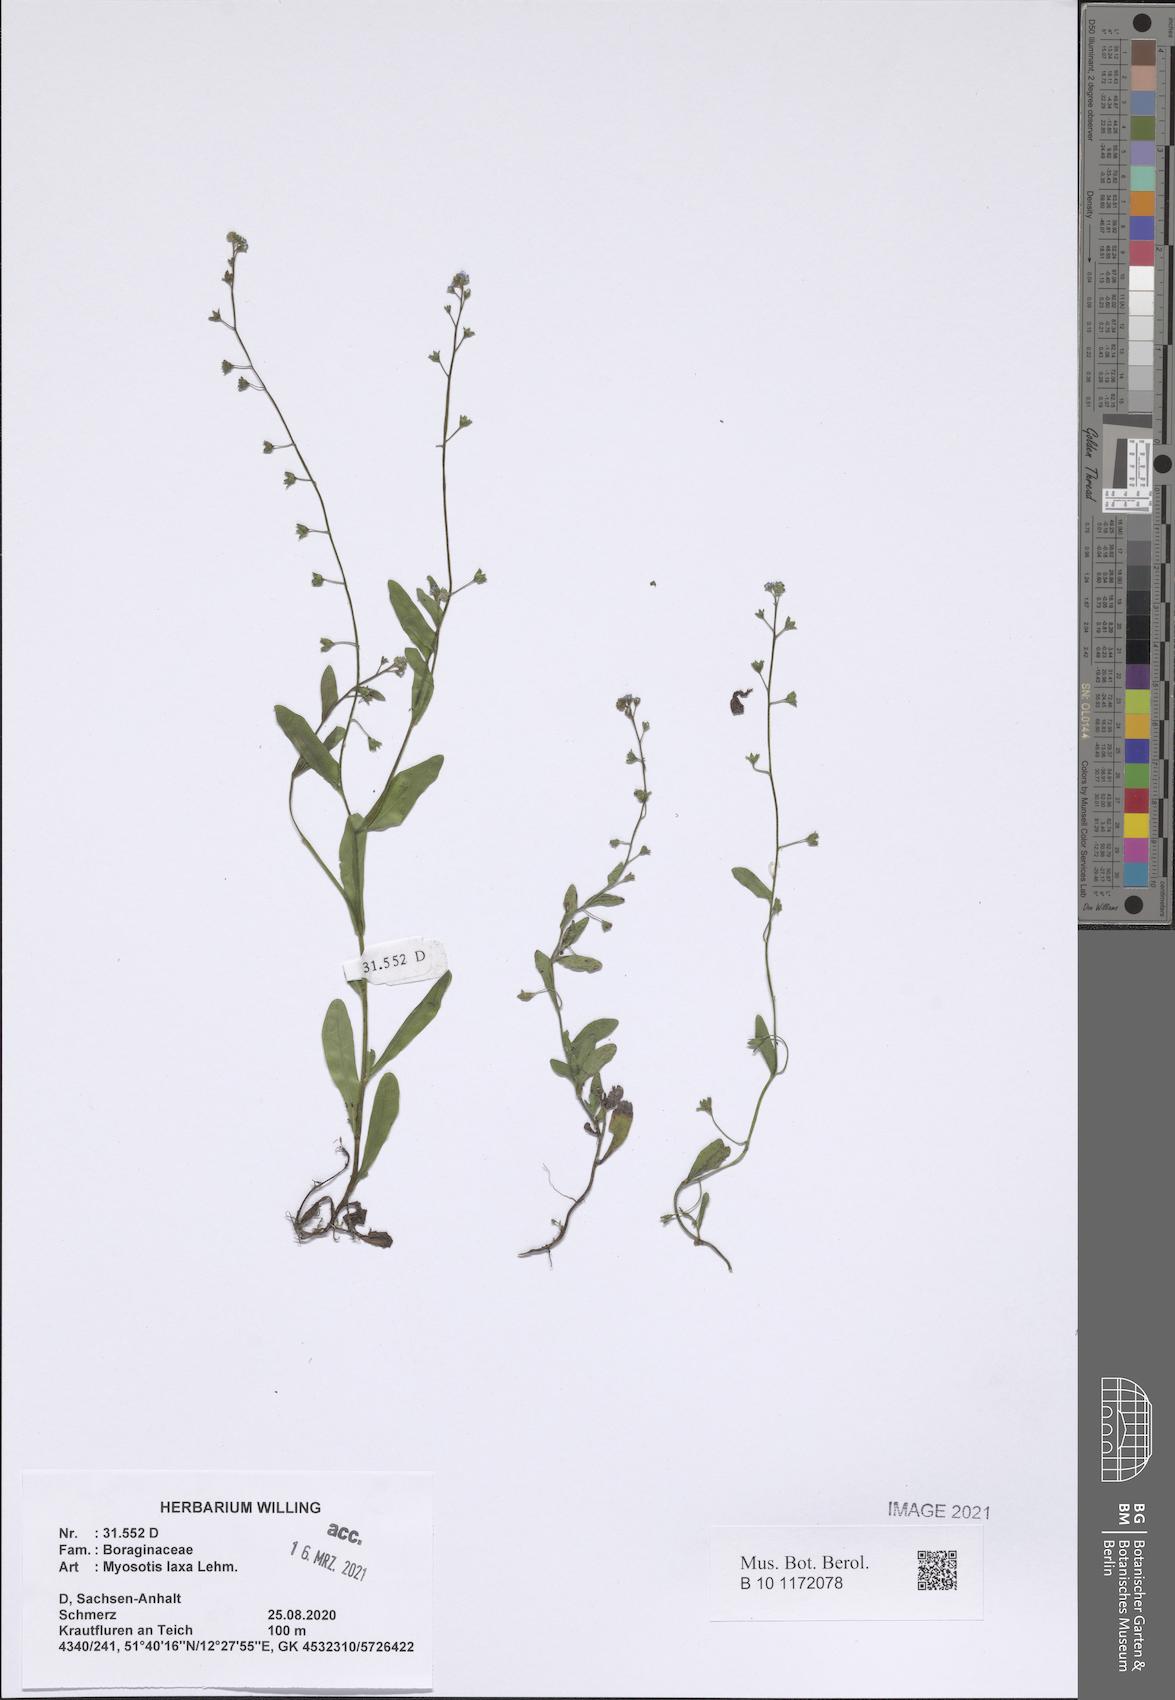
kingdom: Plantae
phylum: Tracheophyta
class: Magnoliopsida
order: Boraginales
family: Boraginaceae
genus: Myosotis
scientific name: Myosotis laxa
